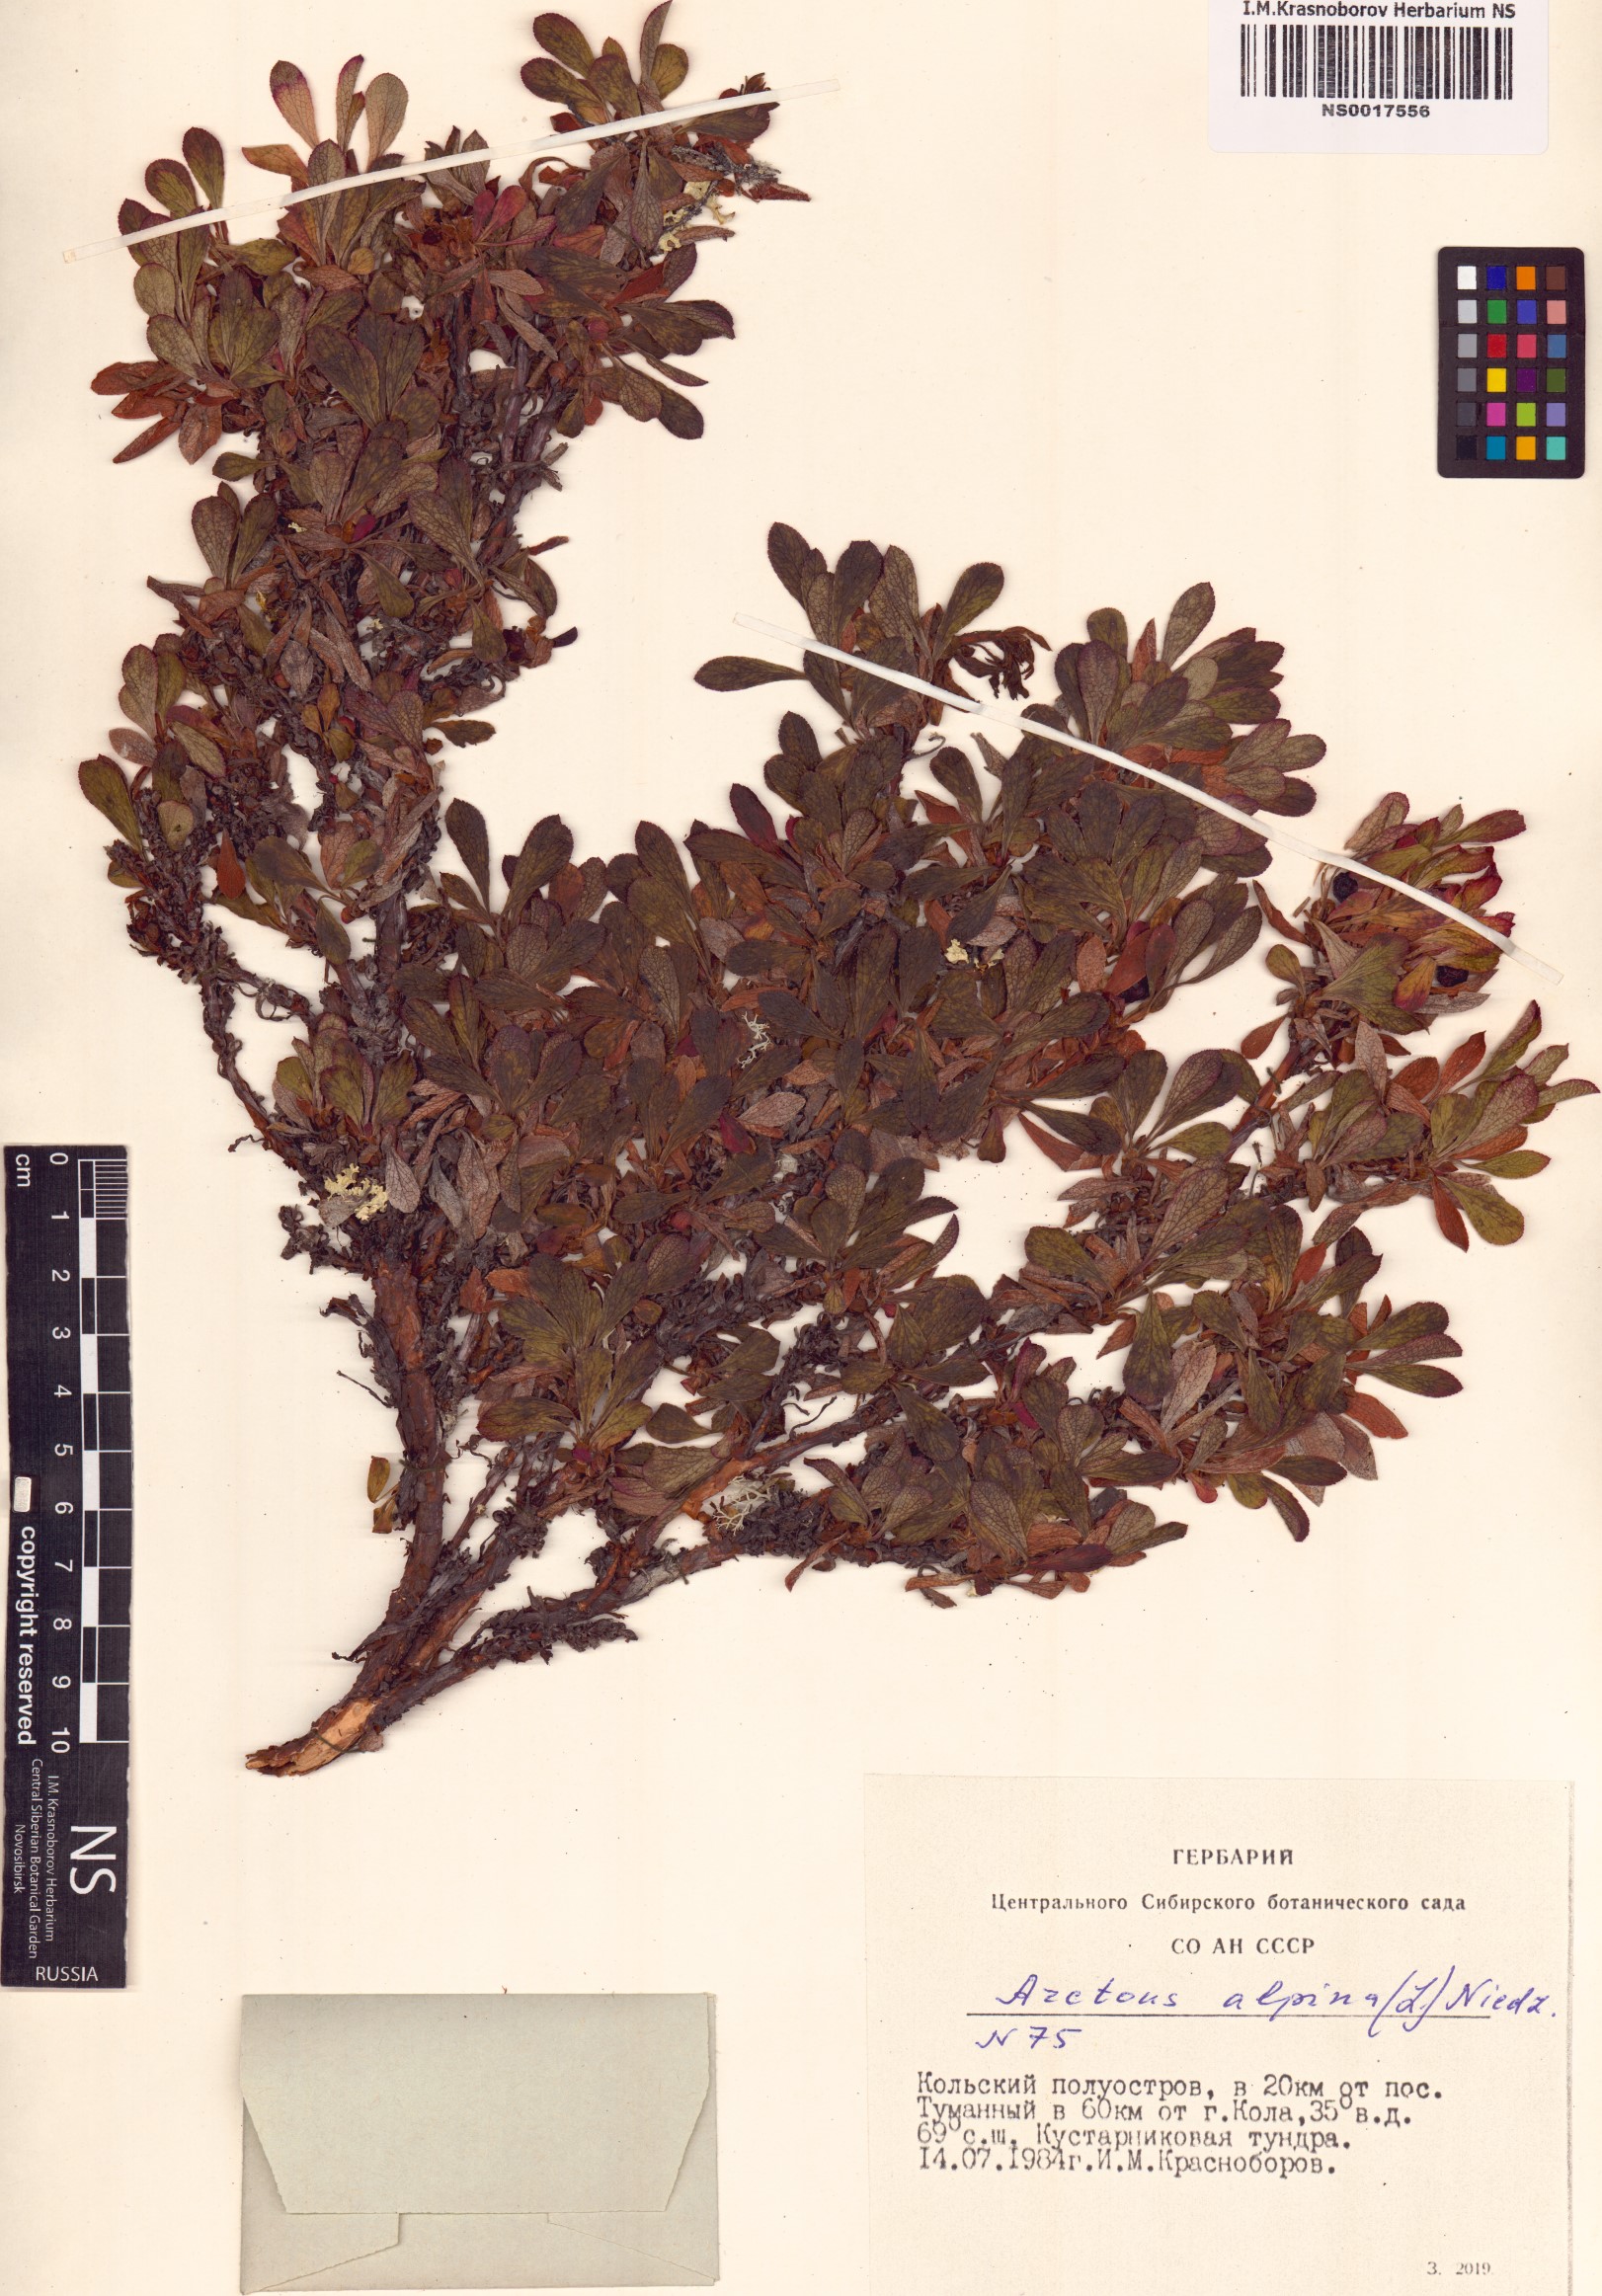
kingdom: Plantae
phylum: Tracheophyta
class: Magnoliopsida
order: Ericales
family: Ericaceae
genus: Arctostaphylos
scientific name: Arctostaphylos alpinus
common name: Alpine bearberry
